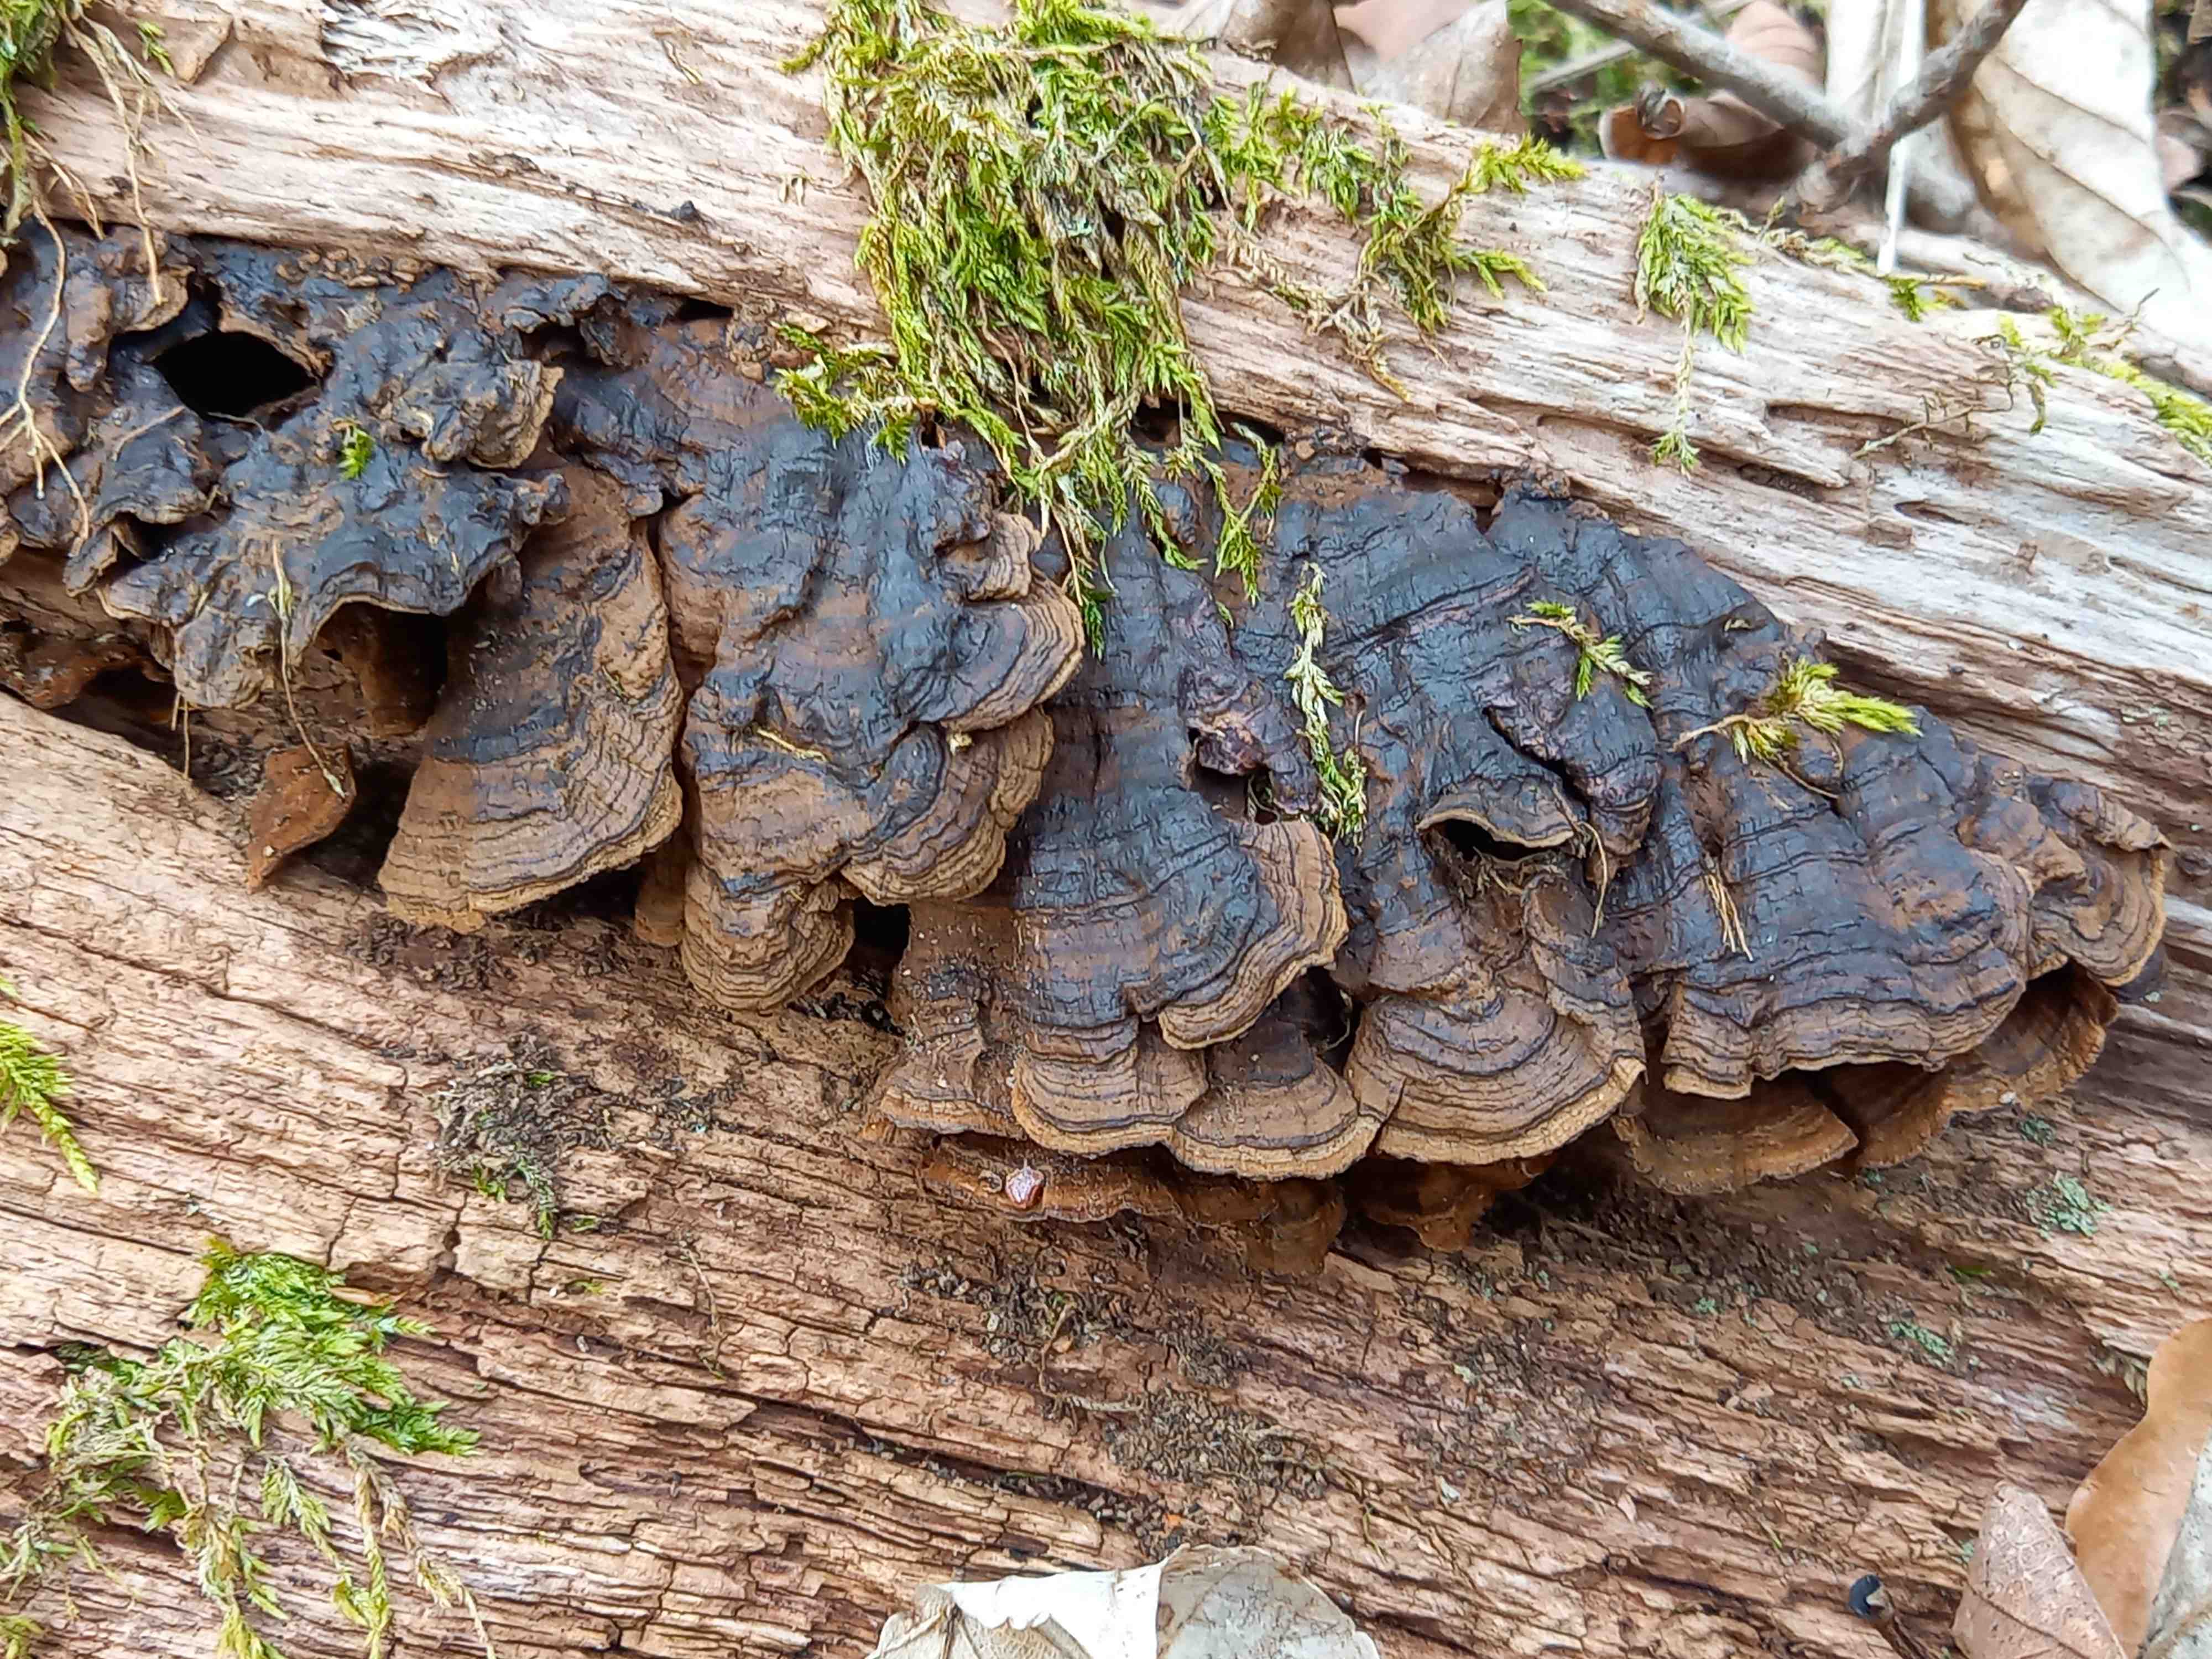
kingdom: Fungi
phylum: Basidiomycota
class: Agaricomycetes
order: Hymenochaetales
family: Hymenochaetaceae
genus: Hymenochaete
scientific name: Hymenochaete rubiginosa
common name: stiv ruslædersvamp
